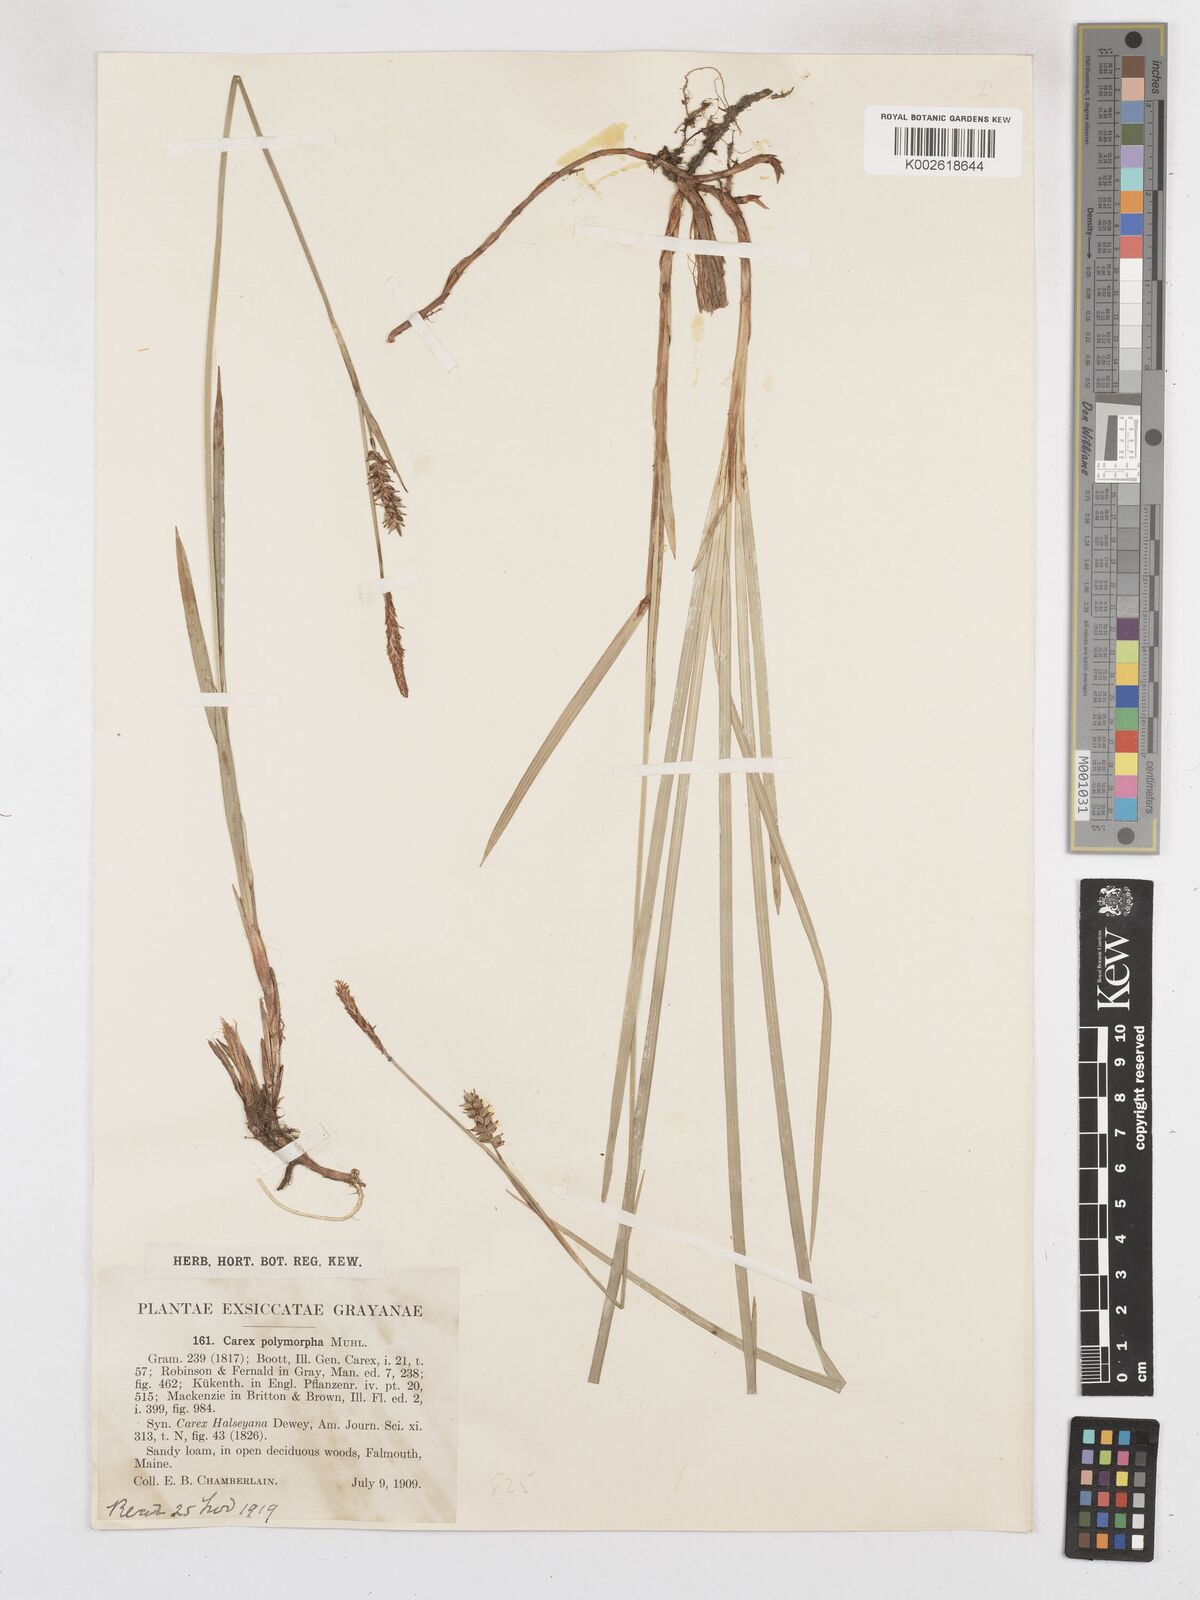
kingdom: Plantae
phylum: Tracheophyta
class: Liliopsida
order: Poales
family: Cyperaceae
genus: Carex
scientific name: Carex polymorpha
